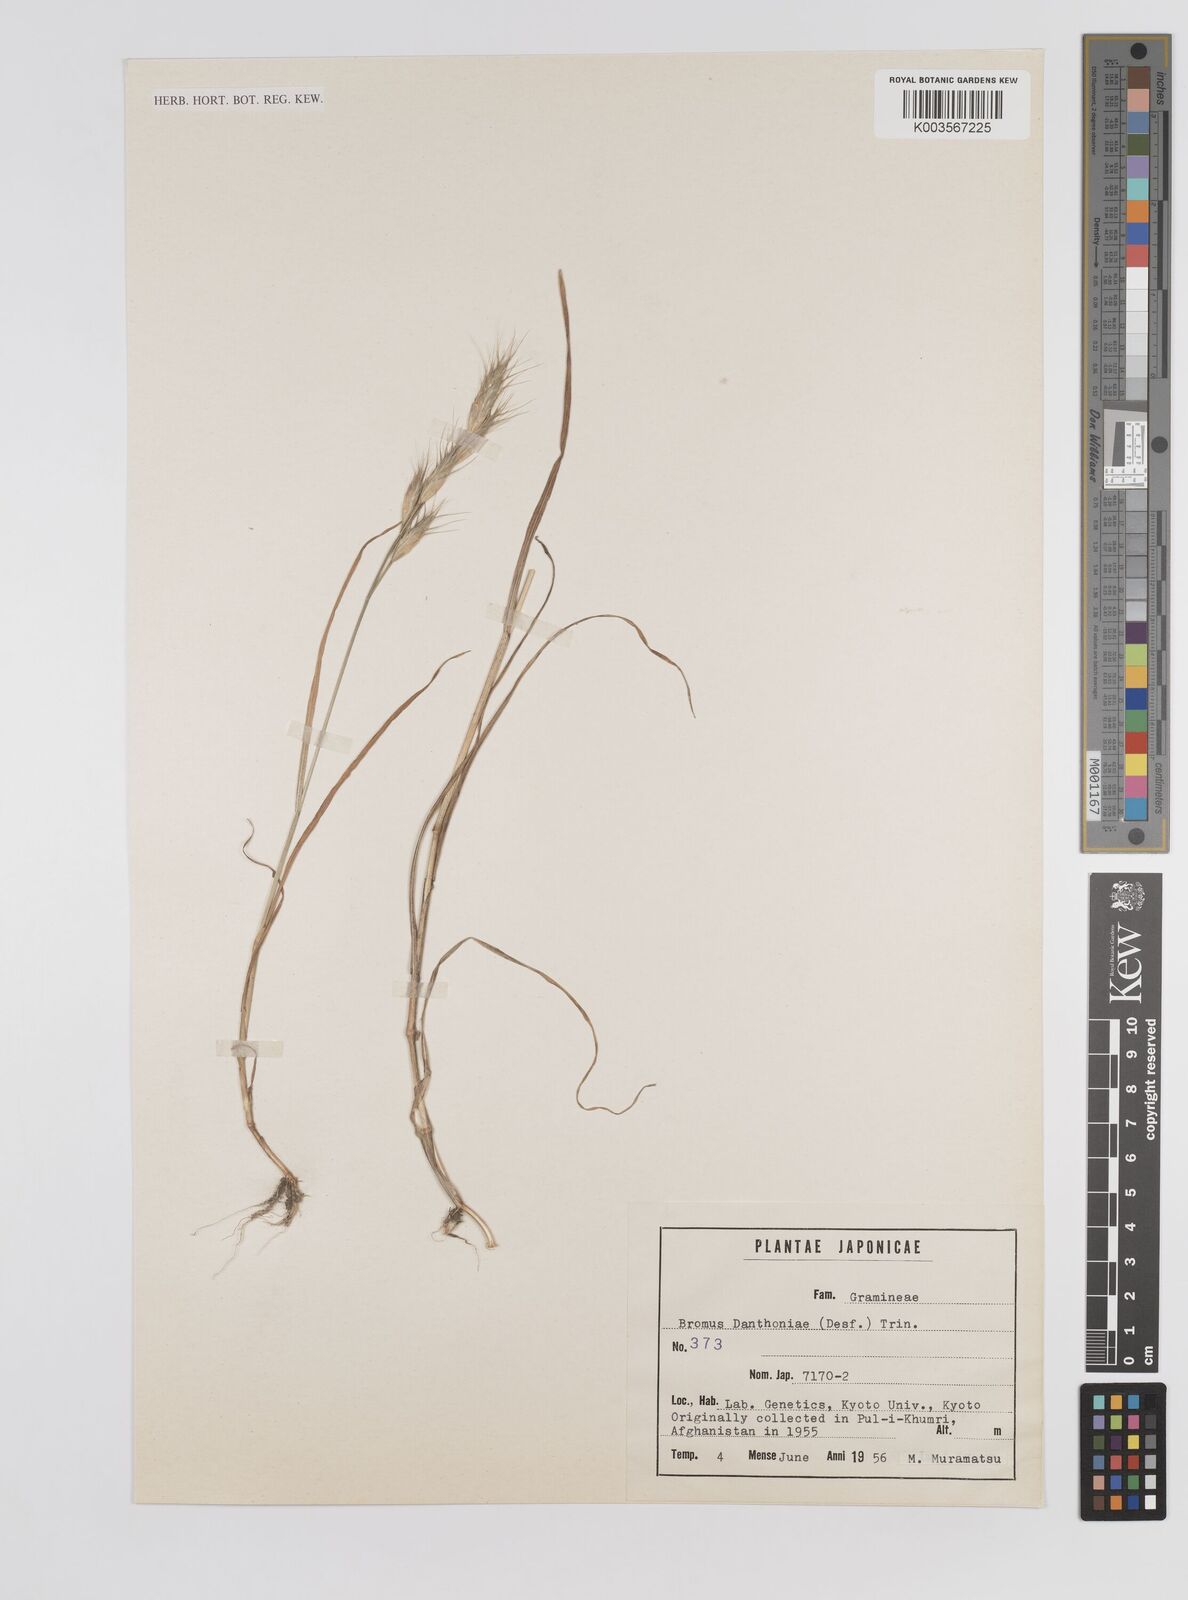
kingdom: Plantae
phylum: Tracheophyta
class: Liliopsida
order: Poales
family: Poaceae
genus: Bromus
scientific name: Bromus danthoniae
